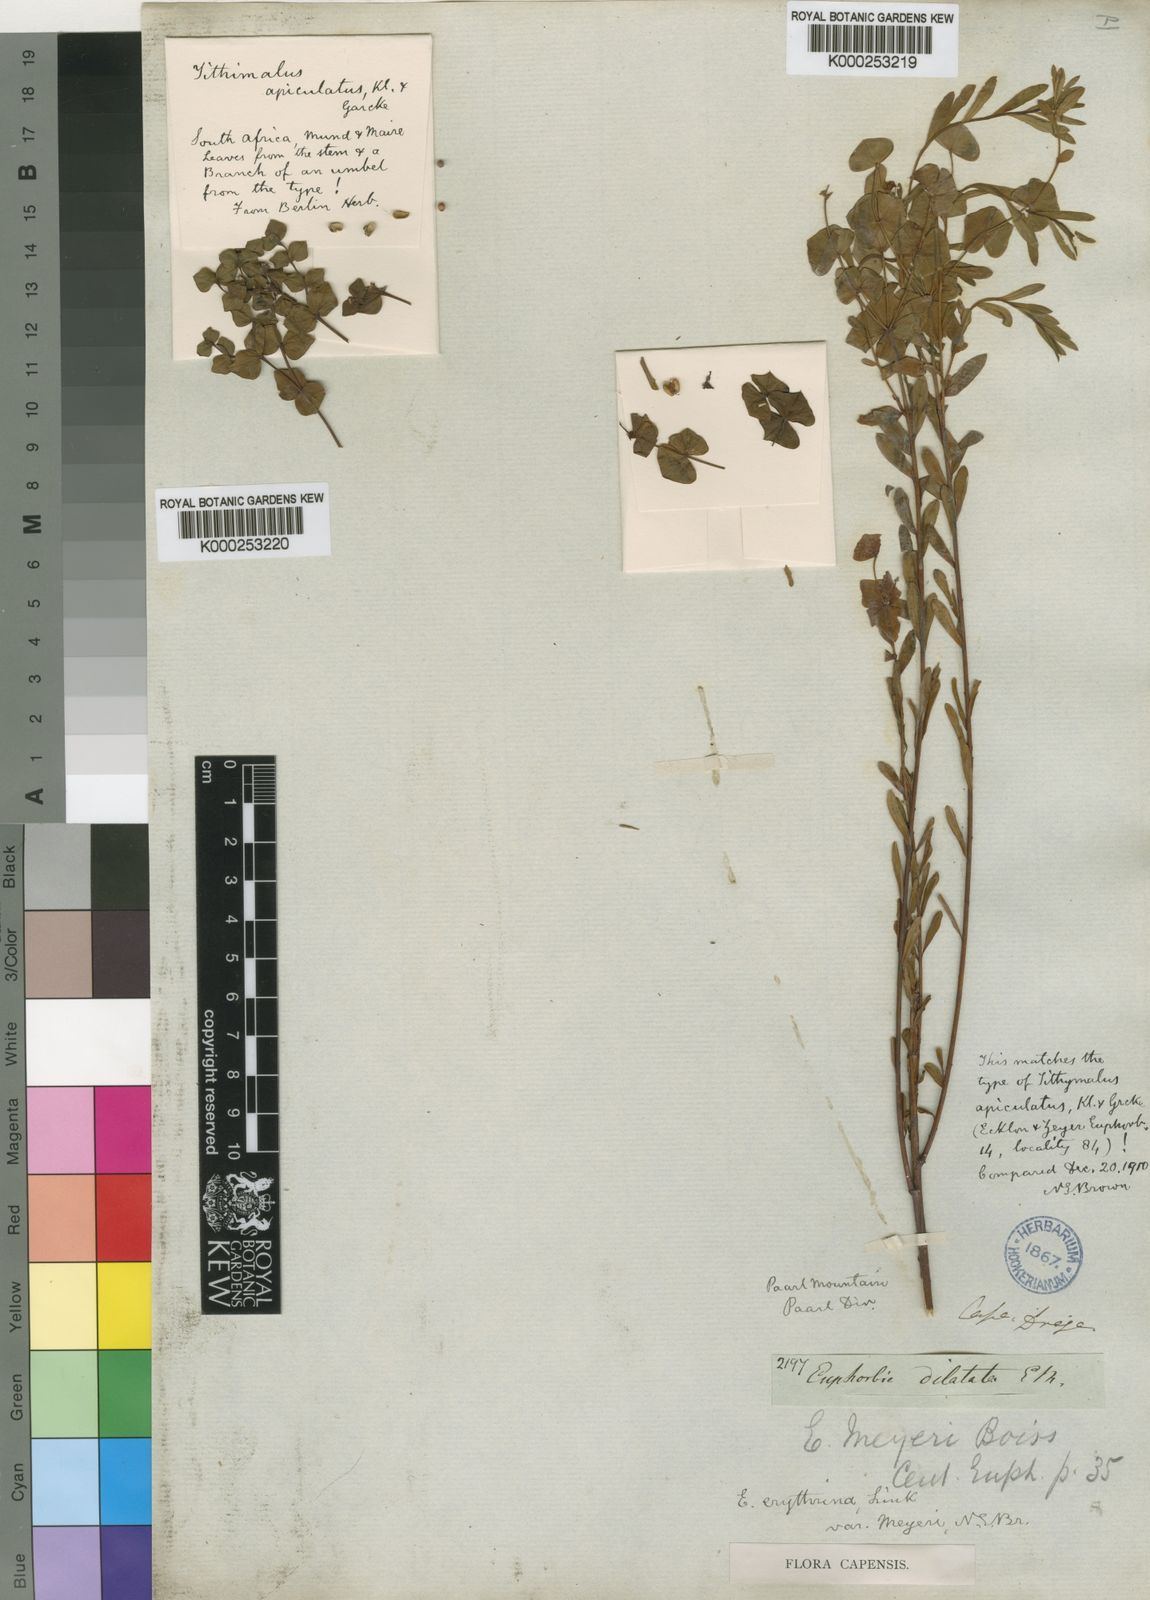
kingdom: Plantae
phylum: Tracheophyta
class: Magnoliopsida
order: Malpighiales
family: Euphorbiaceae
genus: Euphorbia
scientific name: Euphorbia genistoides
